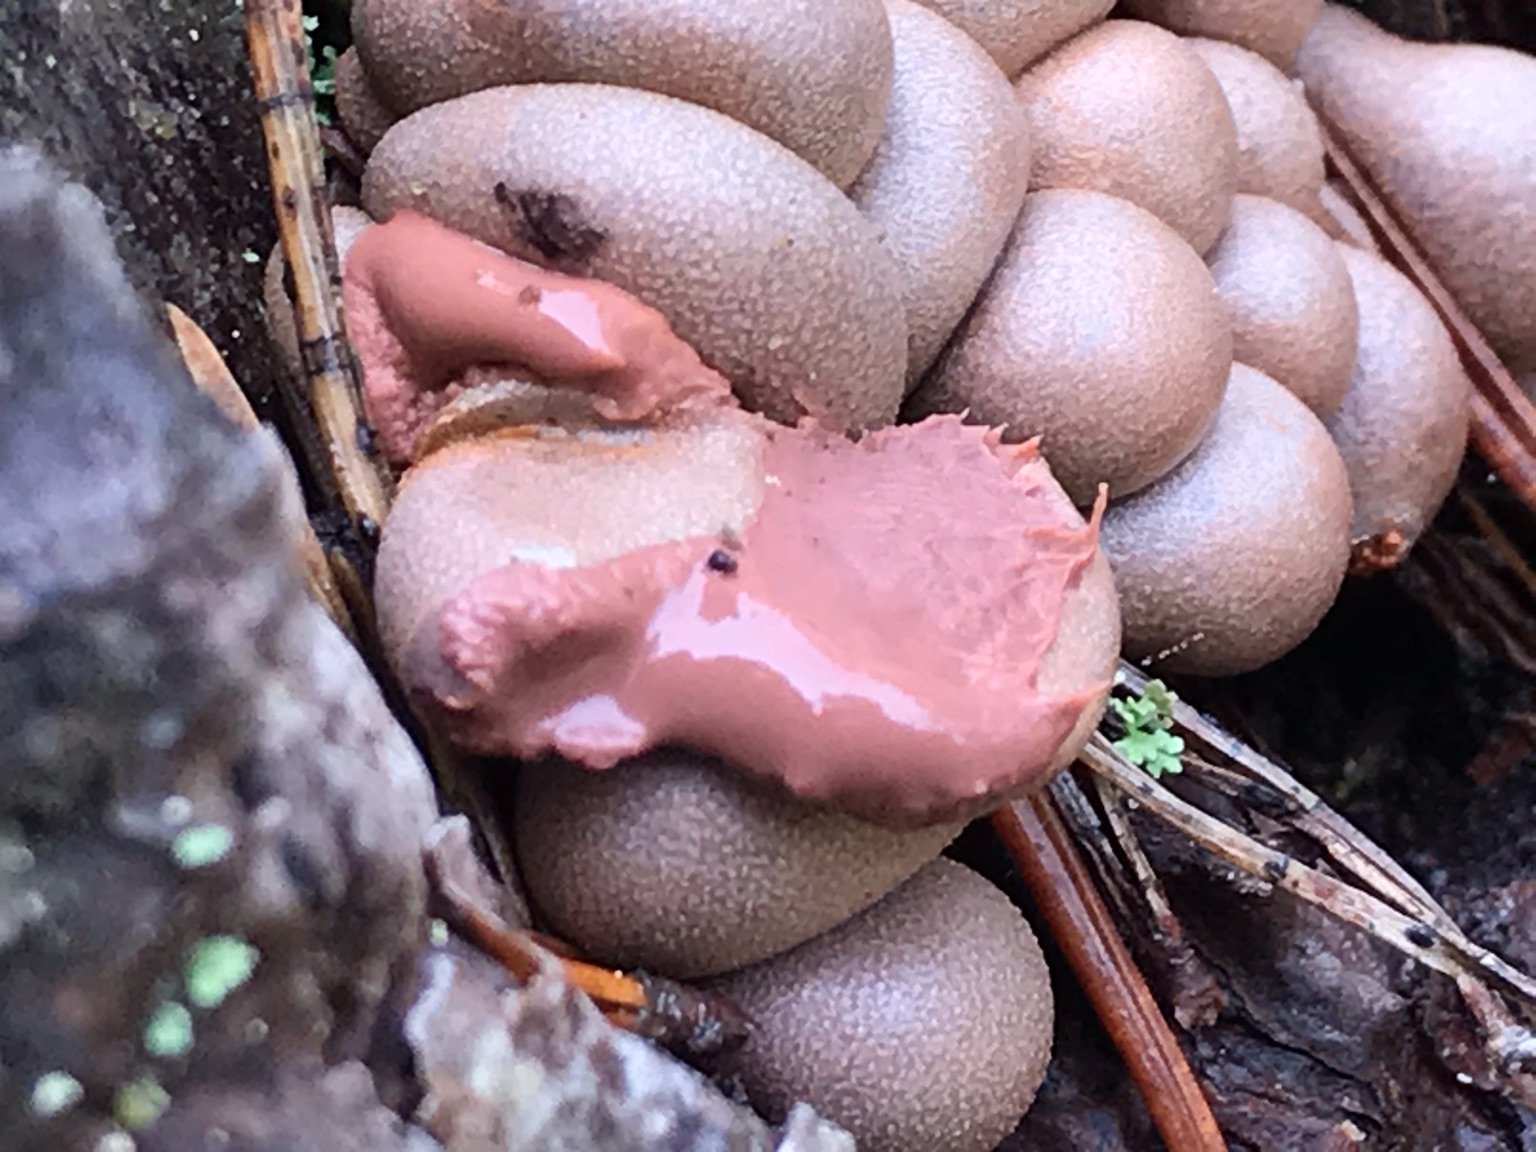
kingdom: Protozoa
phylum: Mycetozoa
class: Myxomycetes
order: Cribrariales
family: Tubiferaceae
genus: Lycogala
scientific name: Lycogala epidendrum
